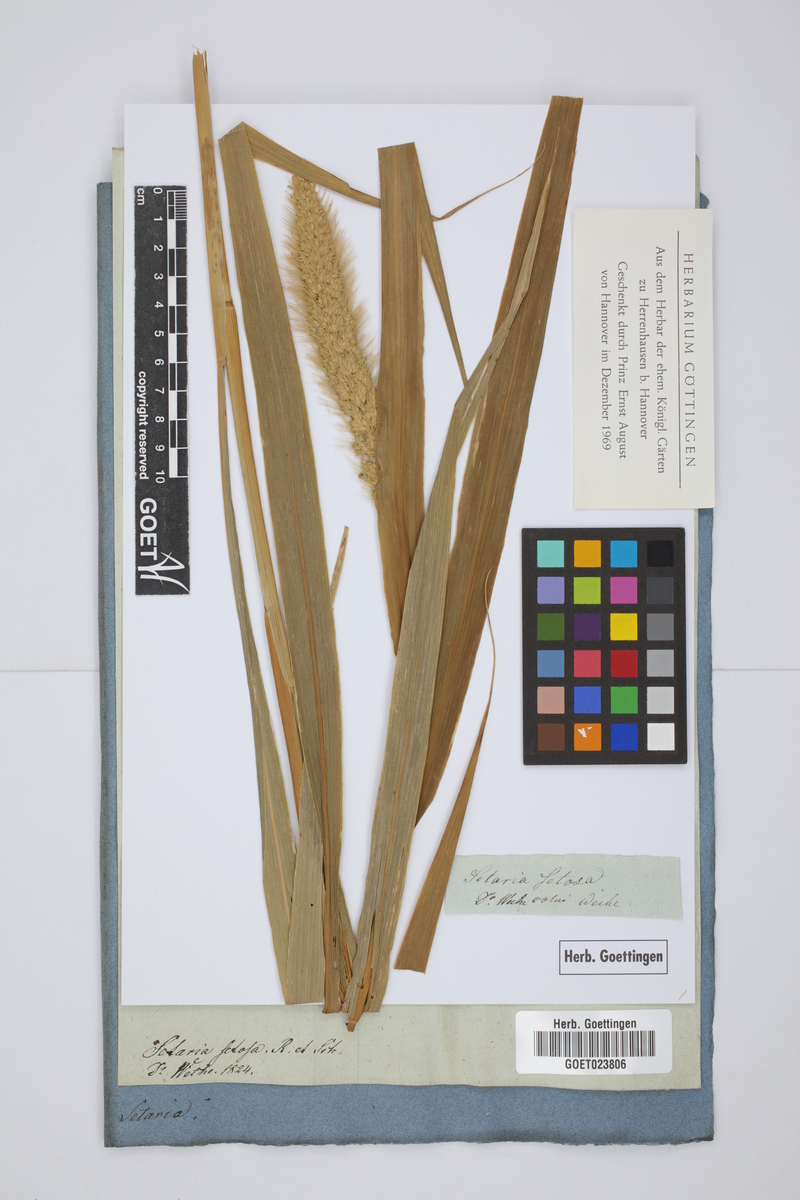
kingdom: Plantae
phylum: Tracheophyta
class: Liliopsida
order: Poales
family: Poaceae
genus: Setaria
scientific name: Setaria setosa
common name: West indies bristle grass
